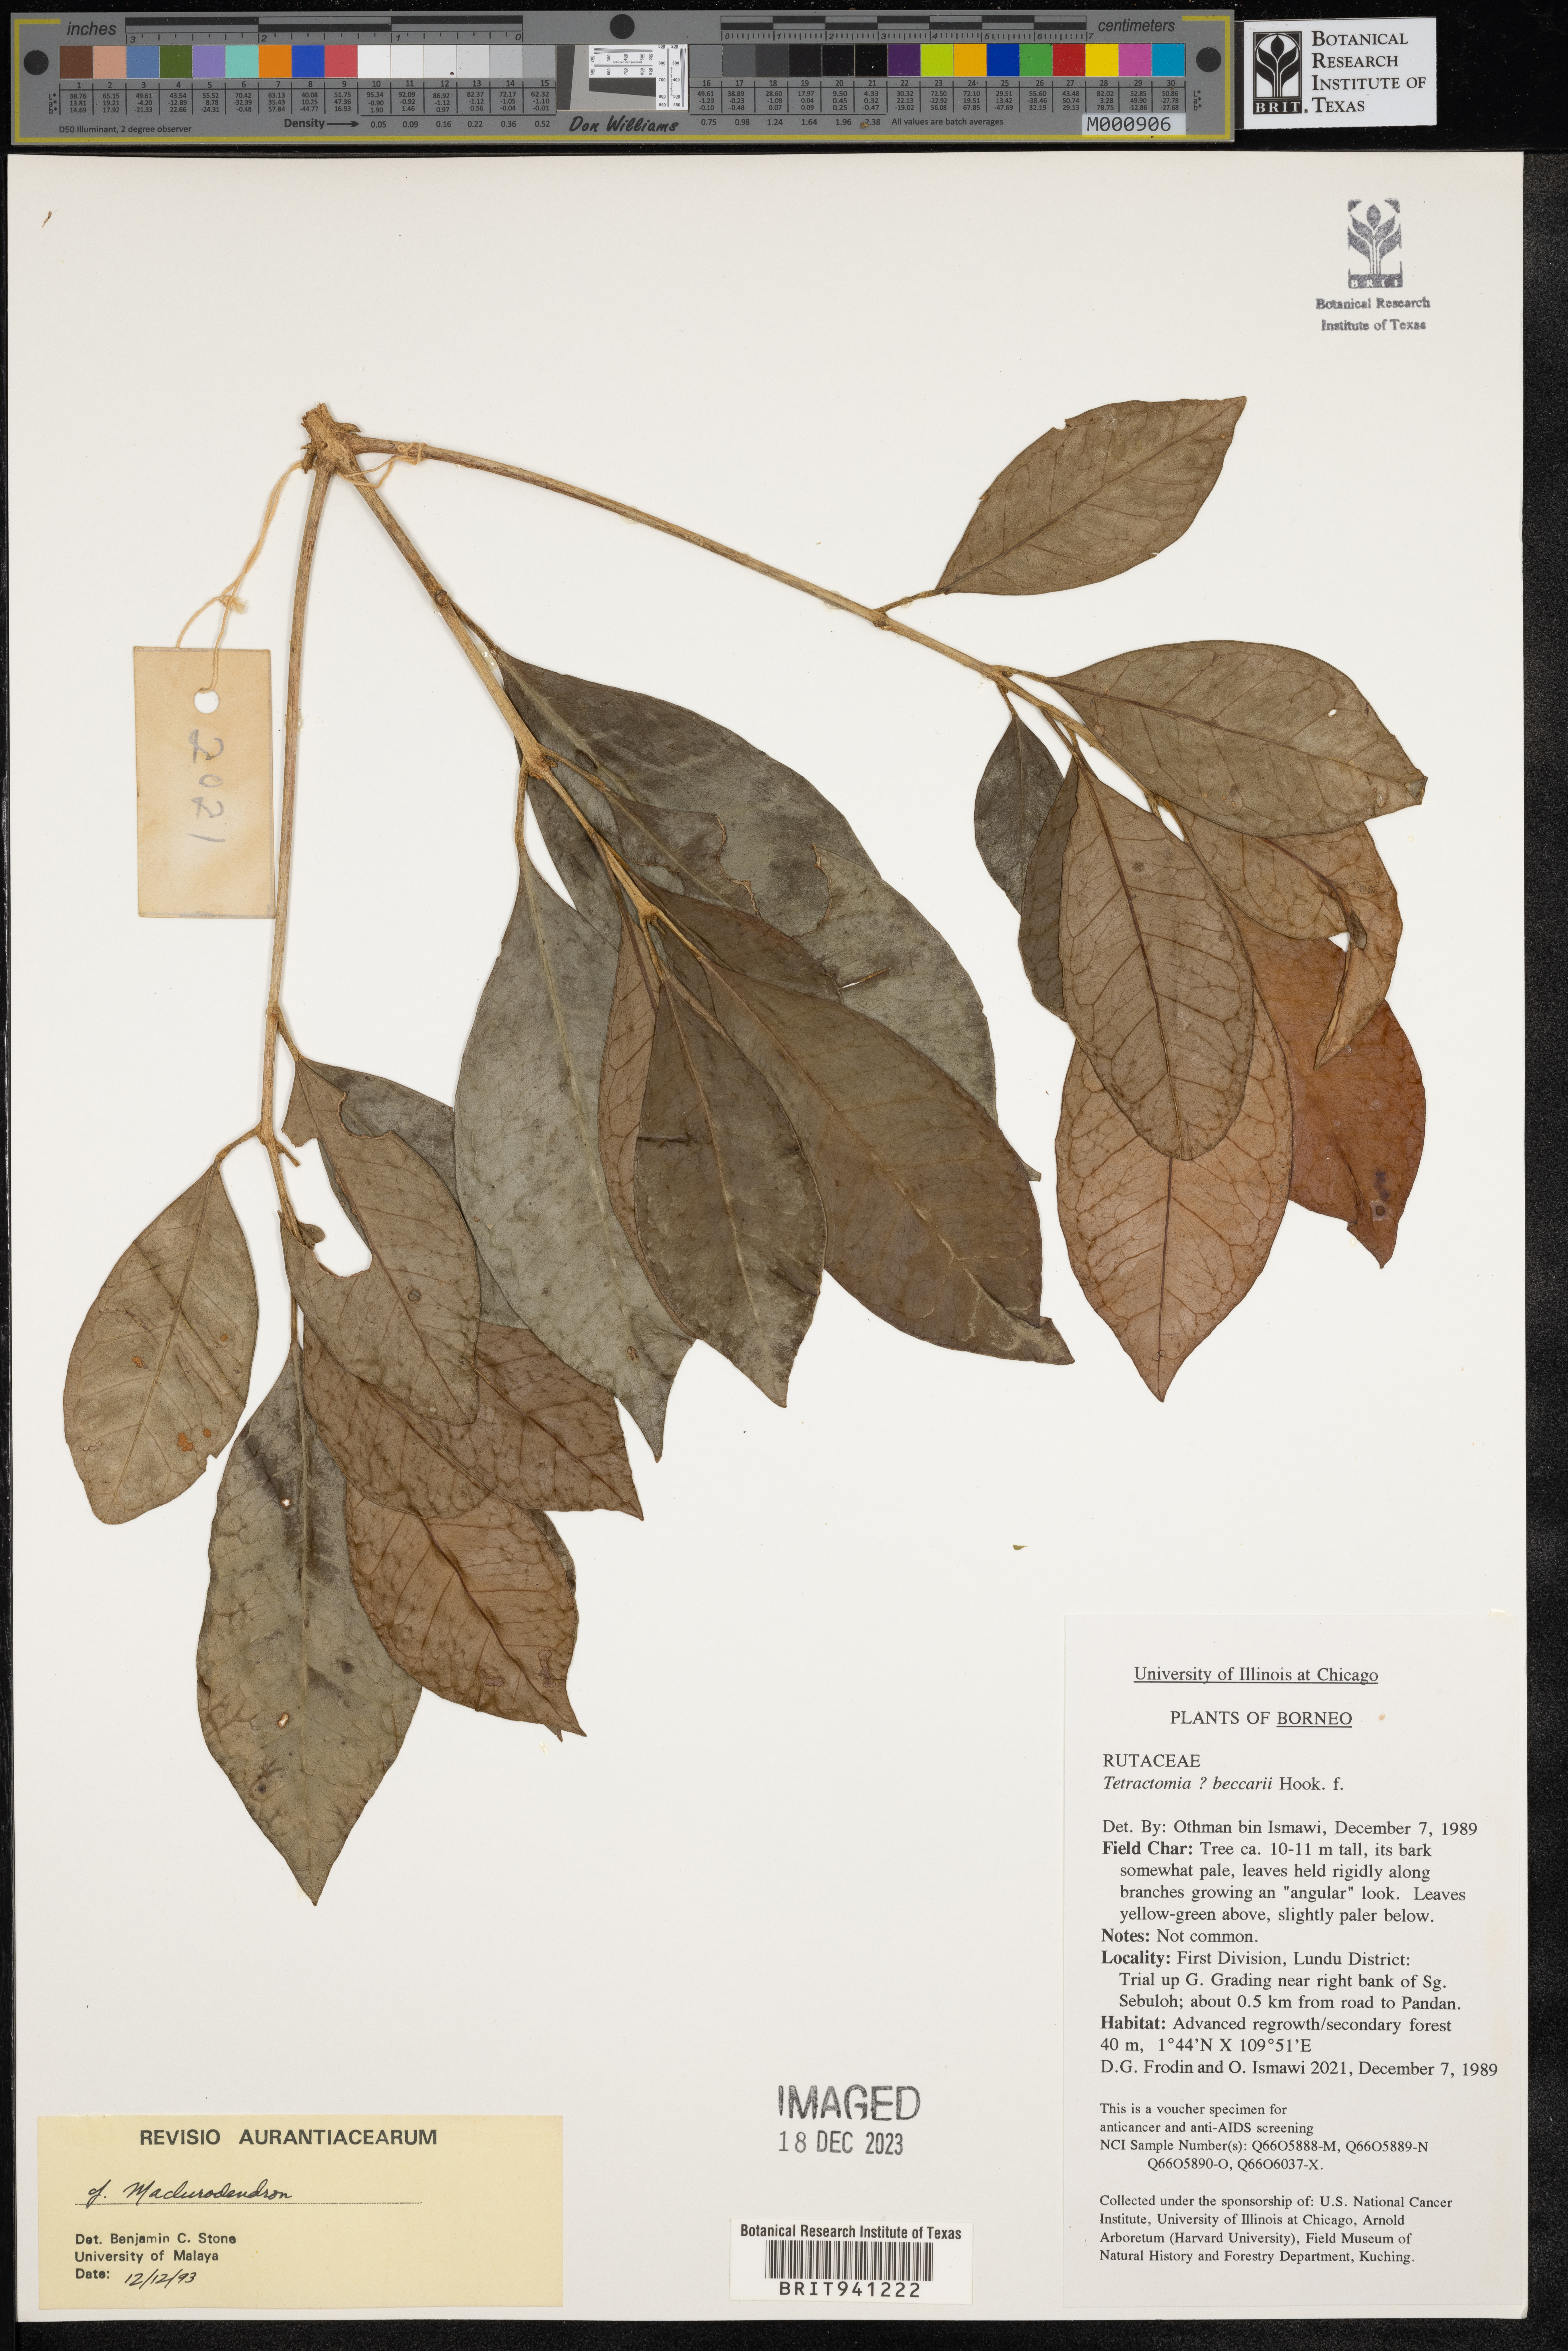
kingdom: Plantae
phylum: Tracheophyta
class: Magnoliopsida
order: Sapindales
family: Rutaceae
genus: Tetractomia
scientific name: Tetractomia
